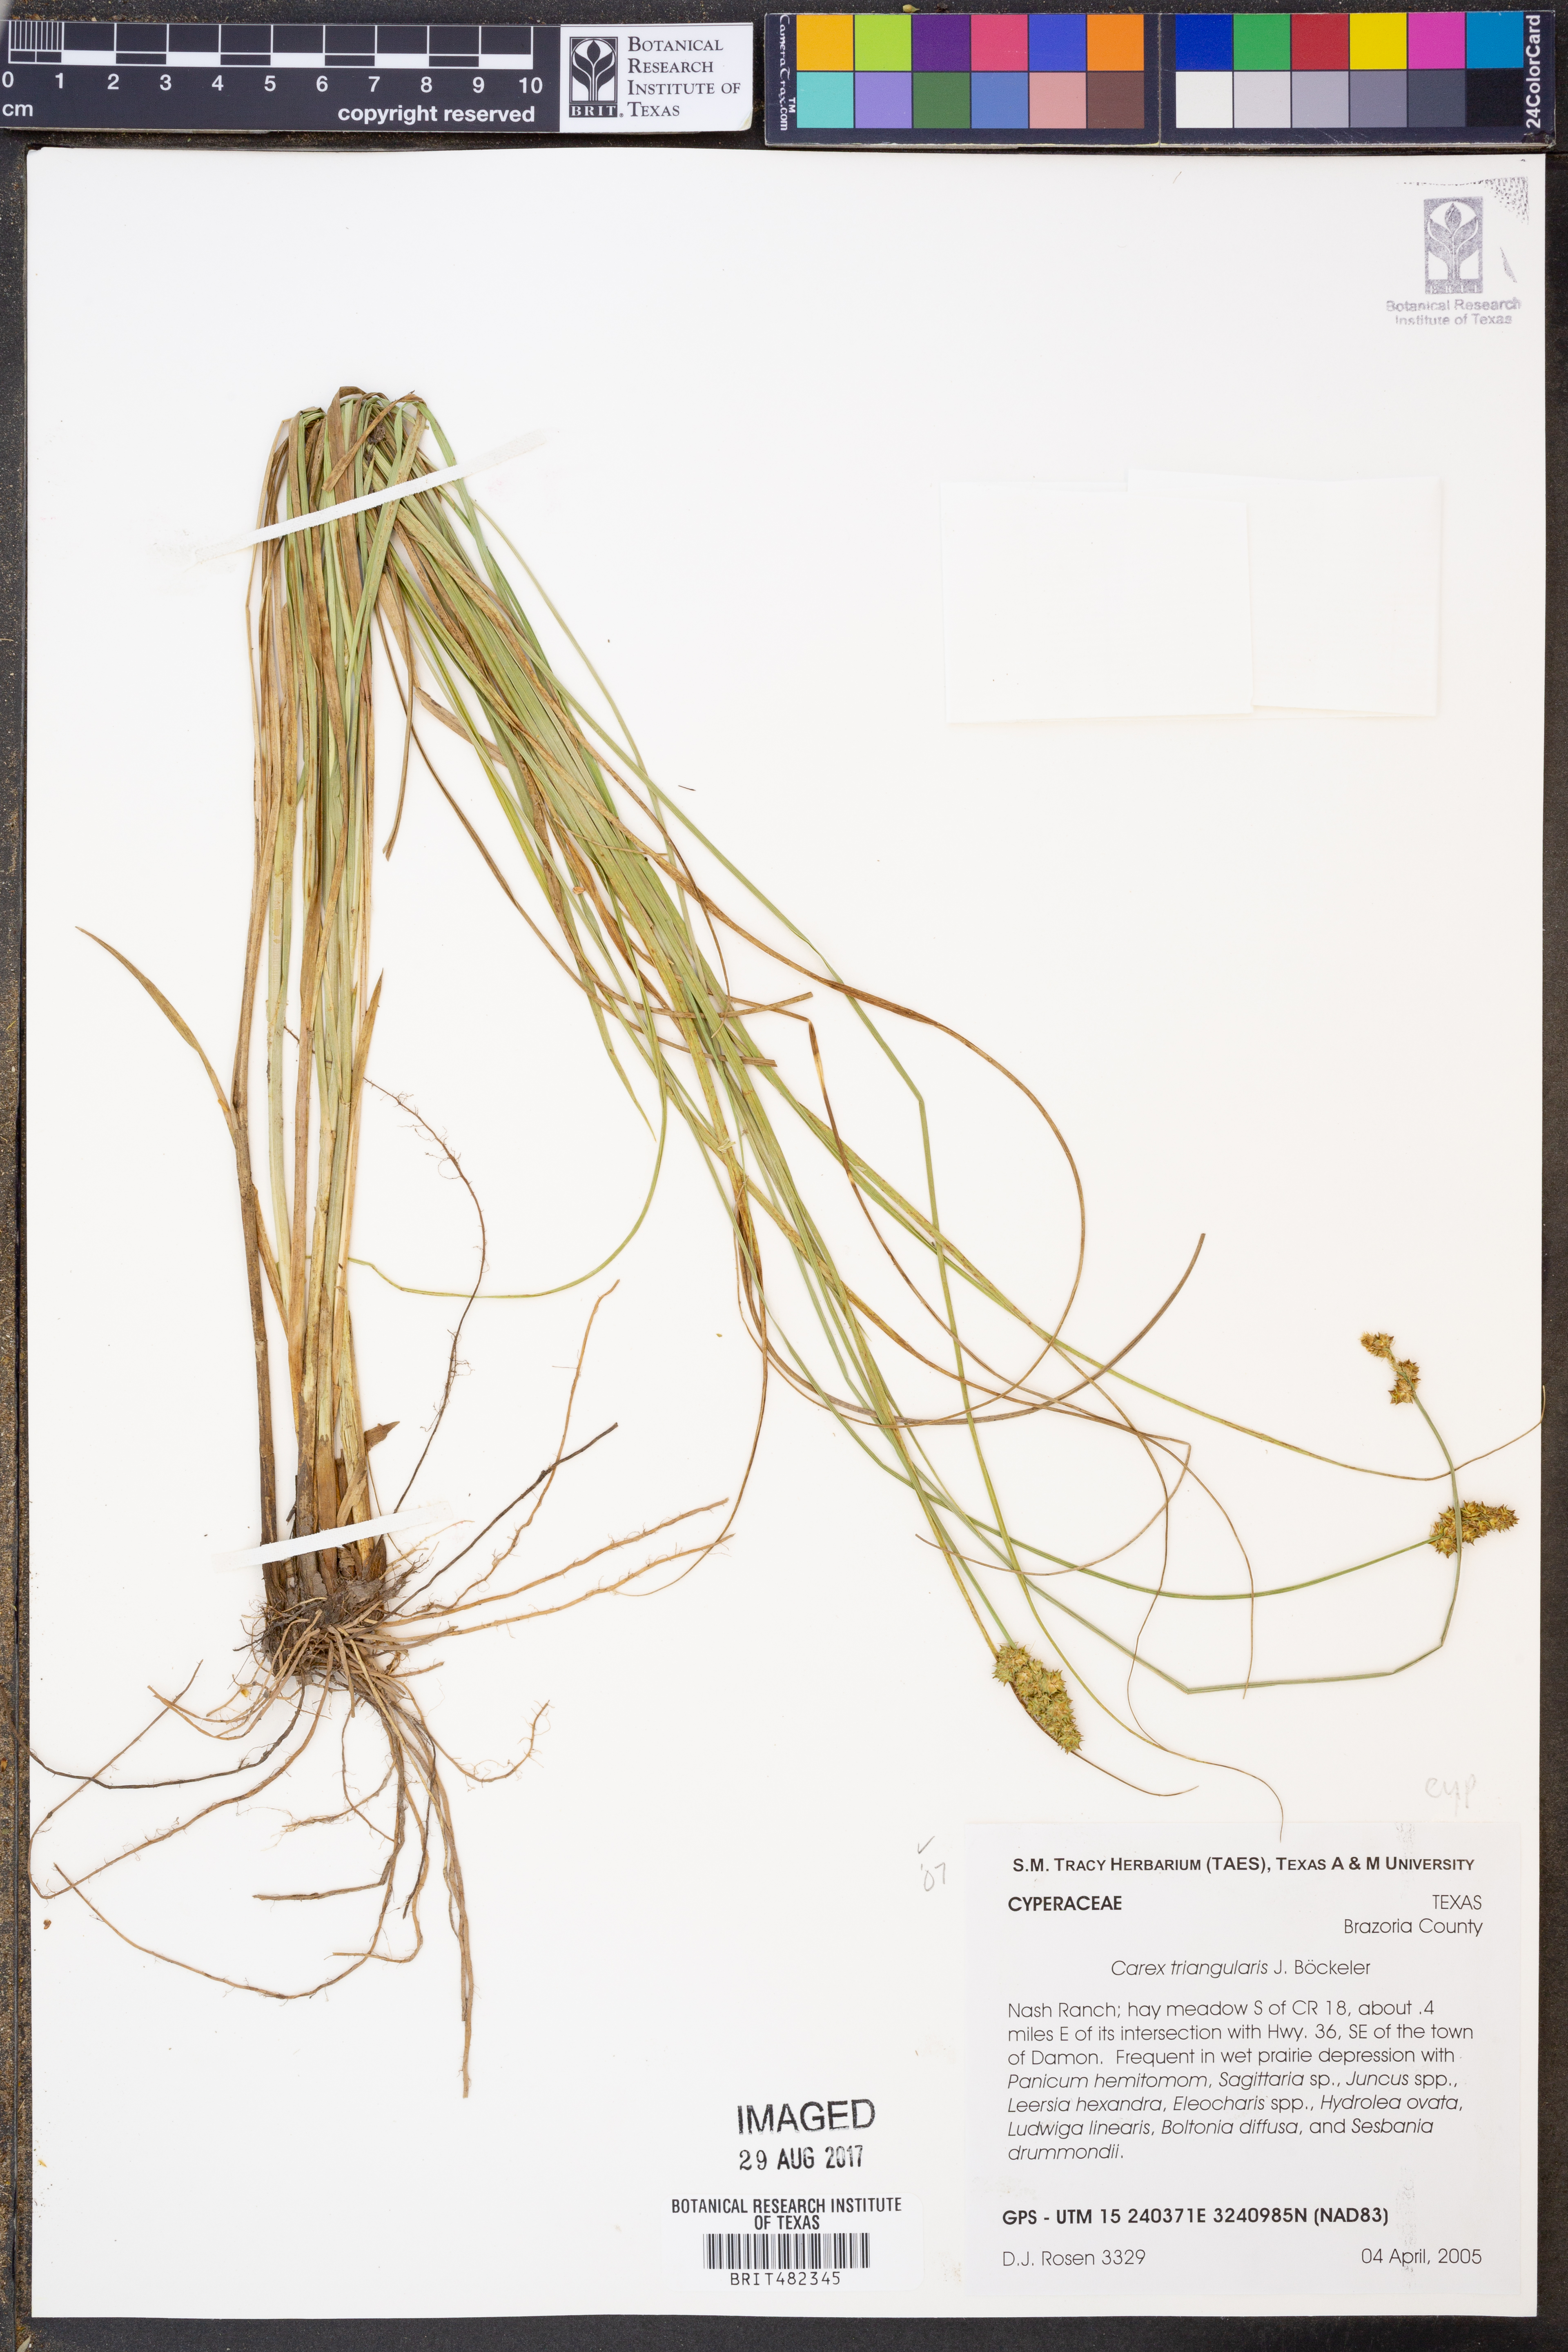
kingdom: Plantae
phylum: Tracheophyta
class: Liliopsida
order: Poales
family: Cyperaceae
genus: Carex
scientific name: Carex triangularis
